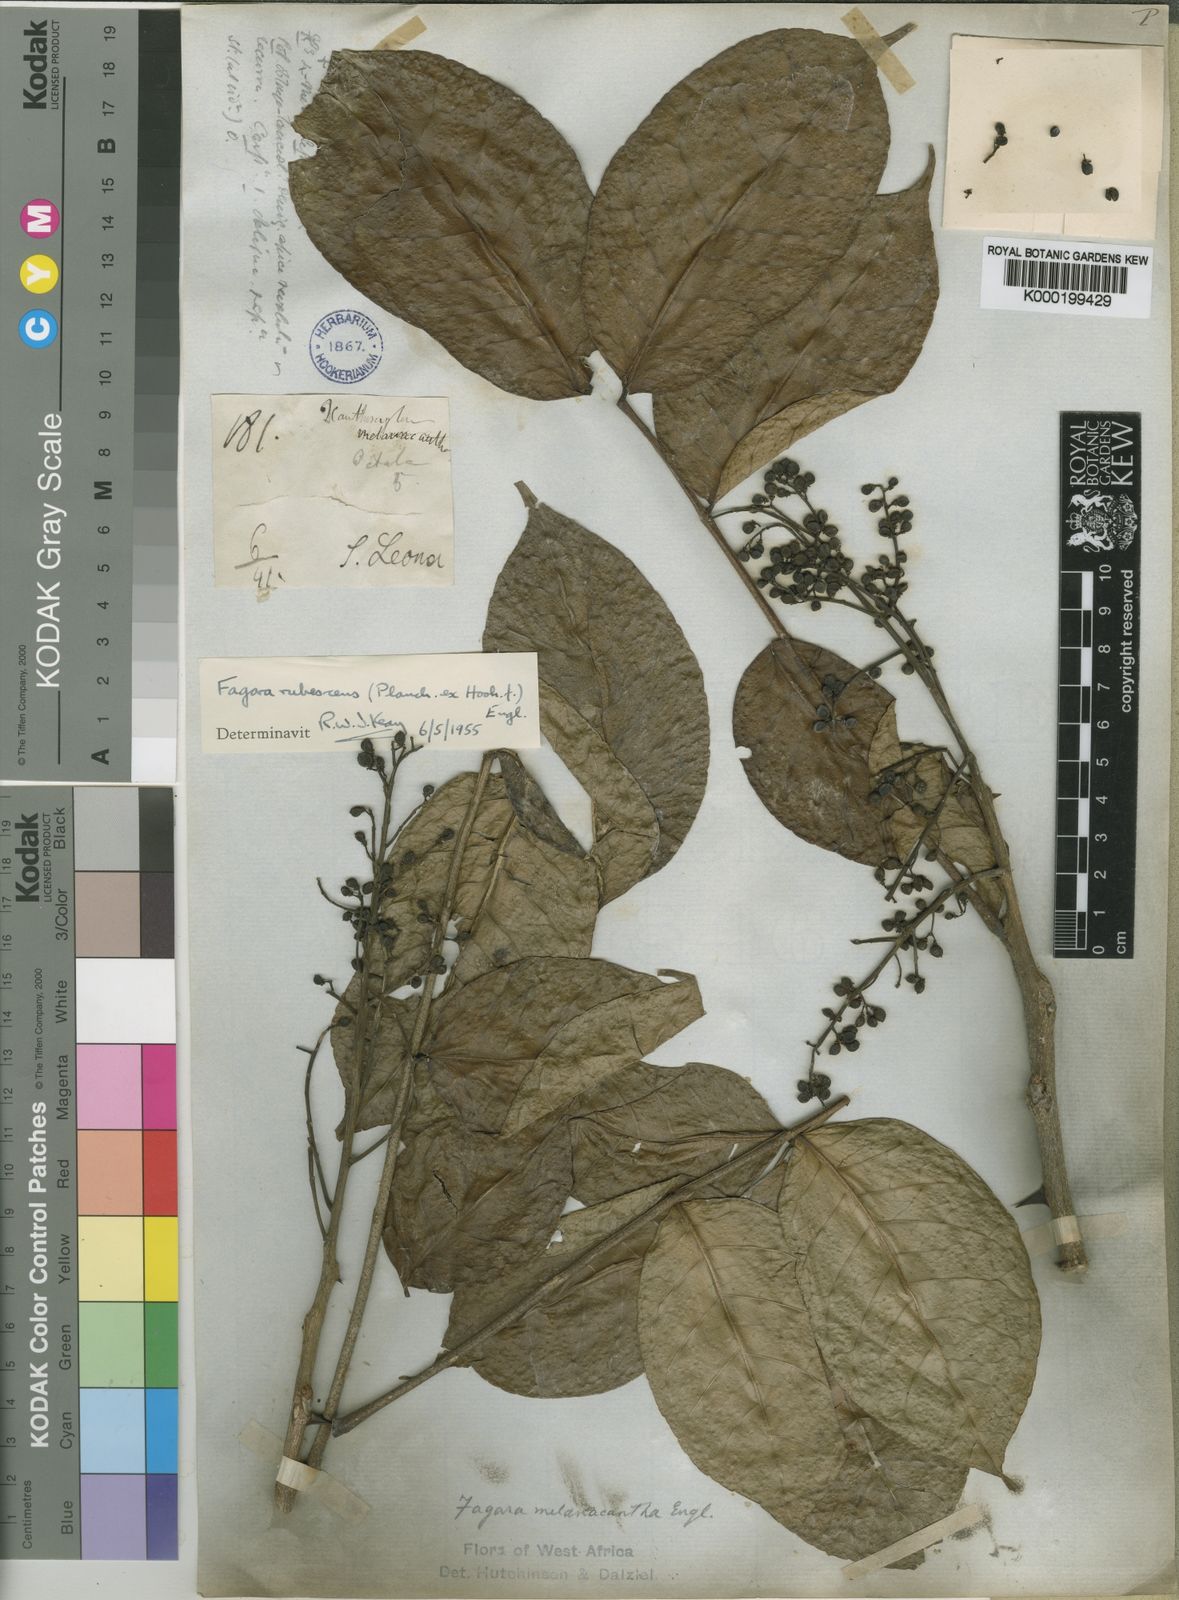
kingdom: Plantae
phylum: Tracheophyta
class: Magnoliopsida
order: Sapindales
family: Rutaceae
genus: Zanthoxylum
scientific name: Zanthoxylum rubescens
